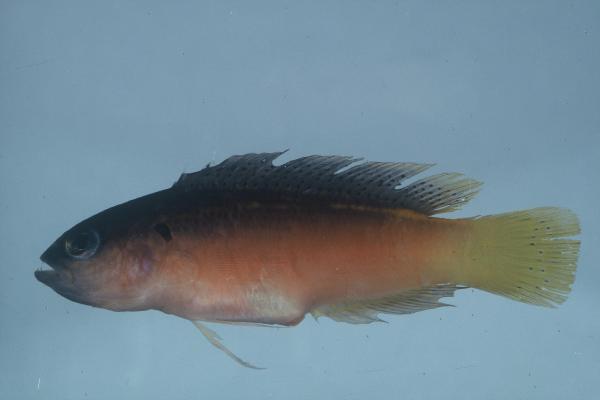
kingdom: Animalia
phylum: Chordata
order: Perciformes
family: Pseudochromidae
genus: Pseudochromis
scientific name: Pseudochromis melas
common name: Dark dottyback
